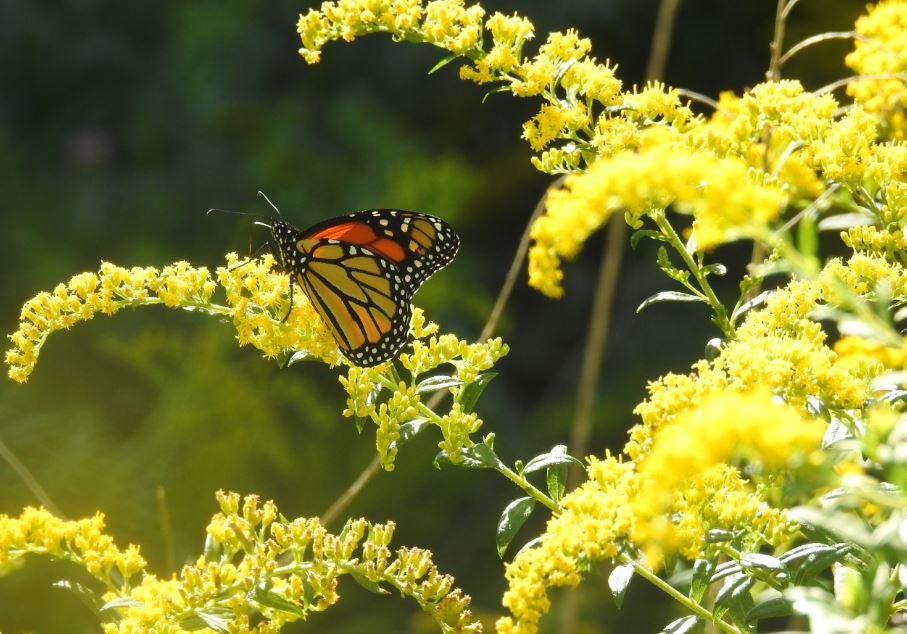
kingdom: Animalia
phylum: Arthropoda
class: Insecta
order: Lepidoptera
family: Nymphalidae
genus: Danaus
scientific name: Danaus plexippus
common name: Monarch
